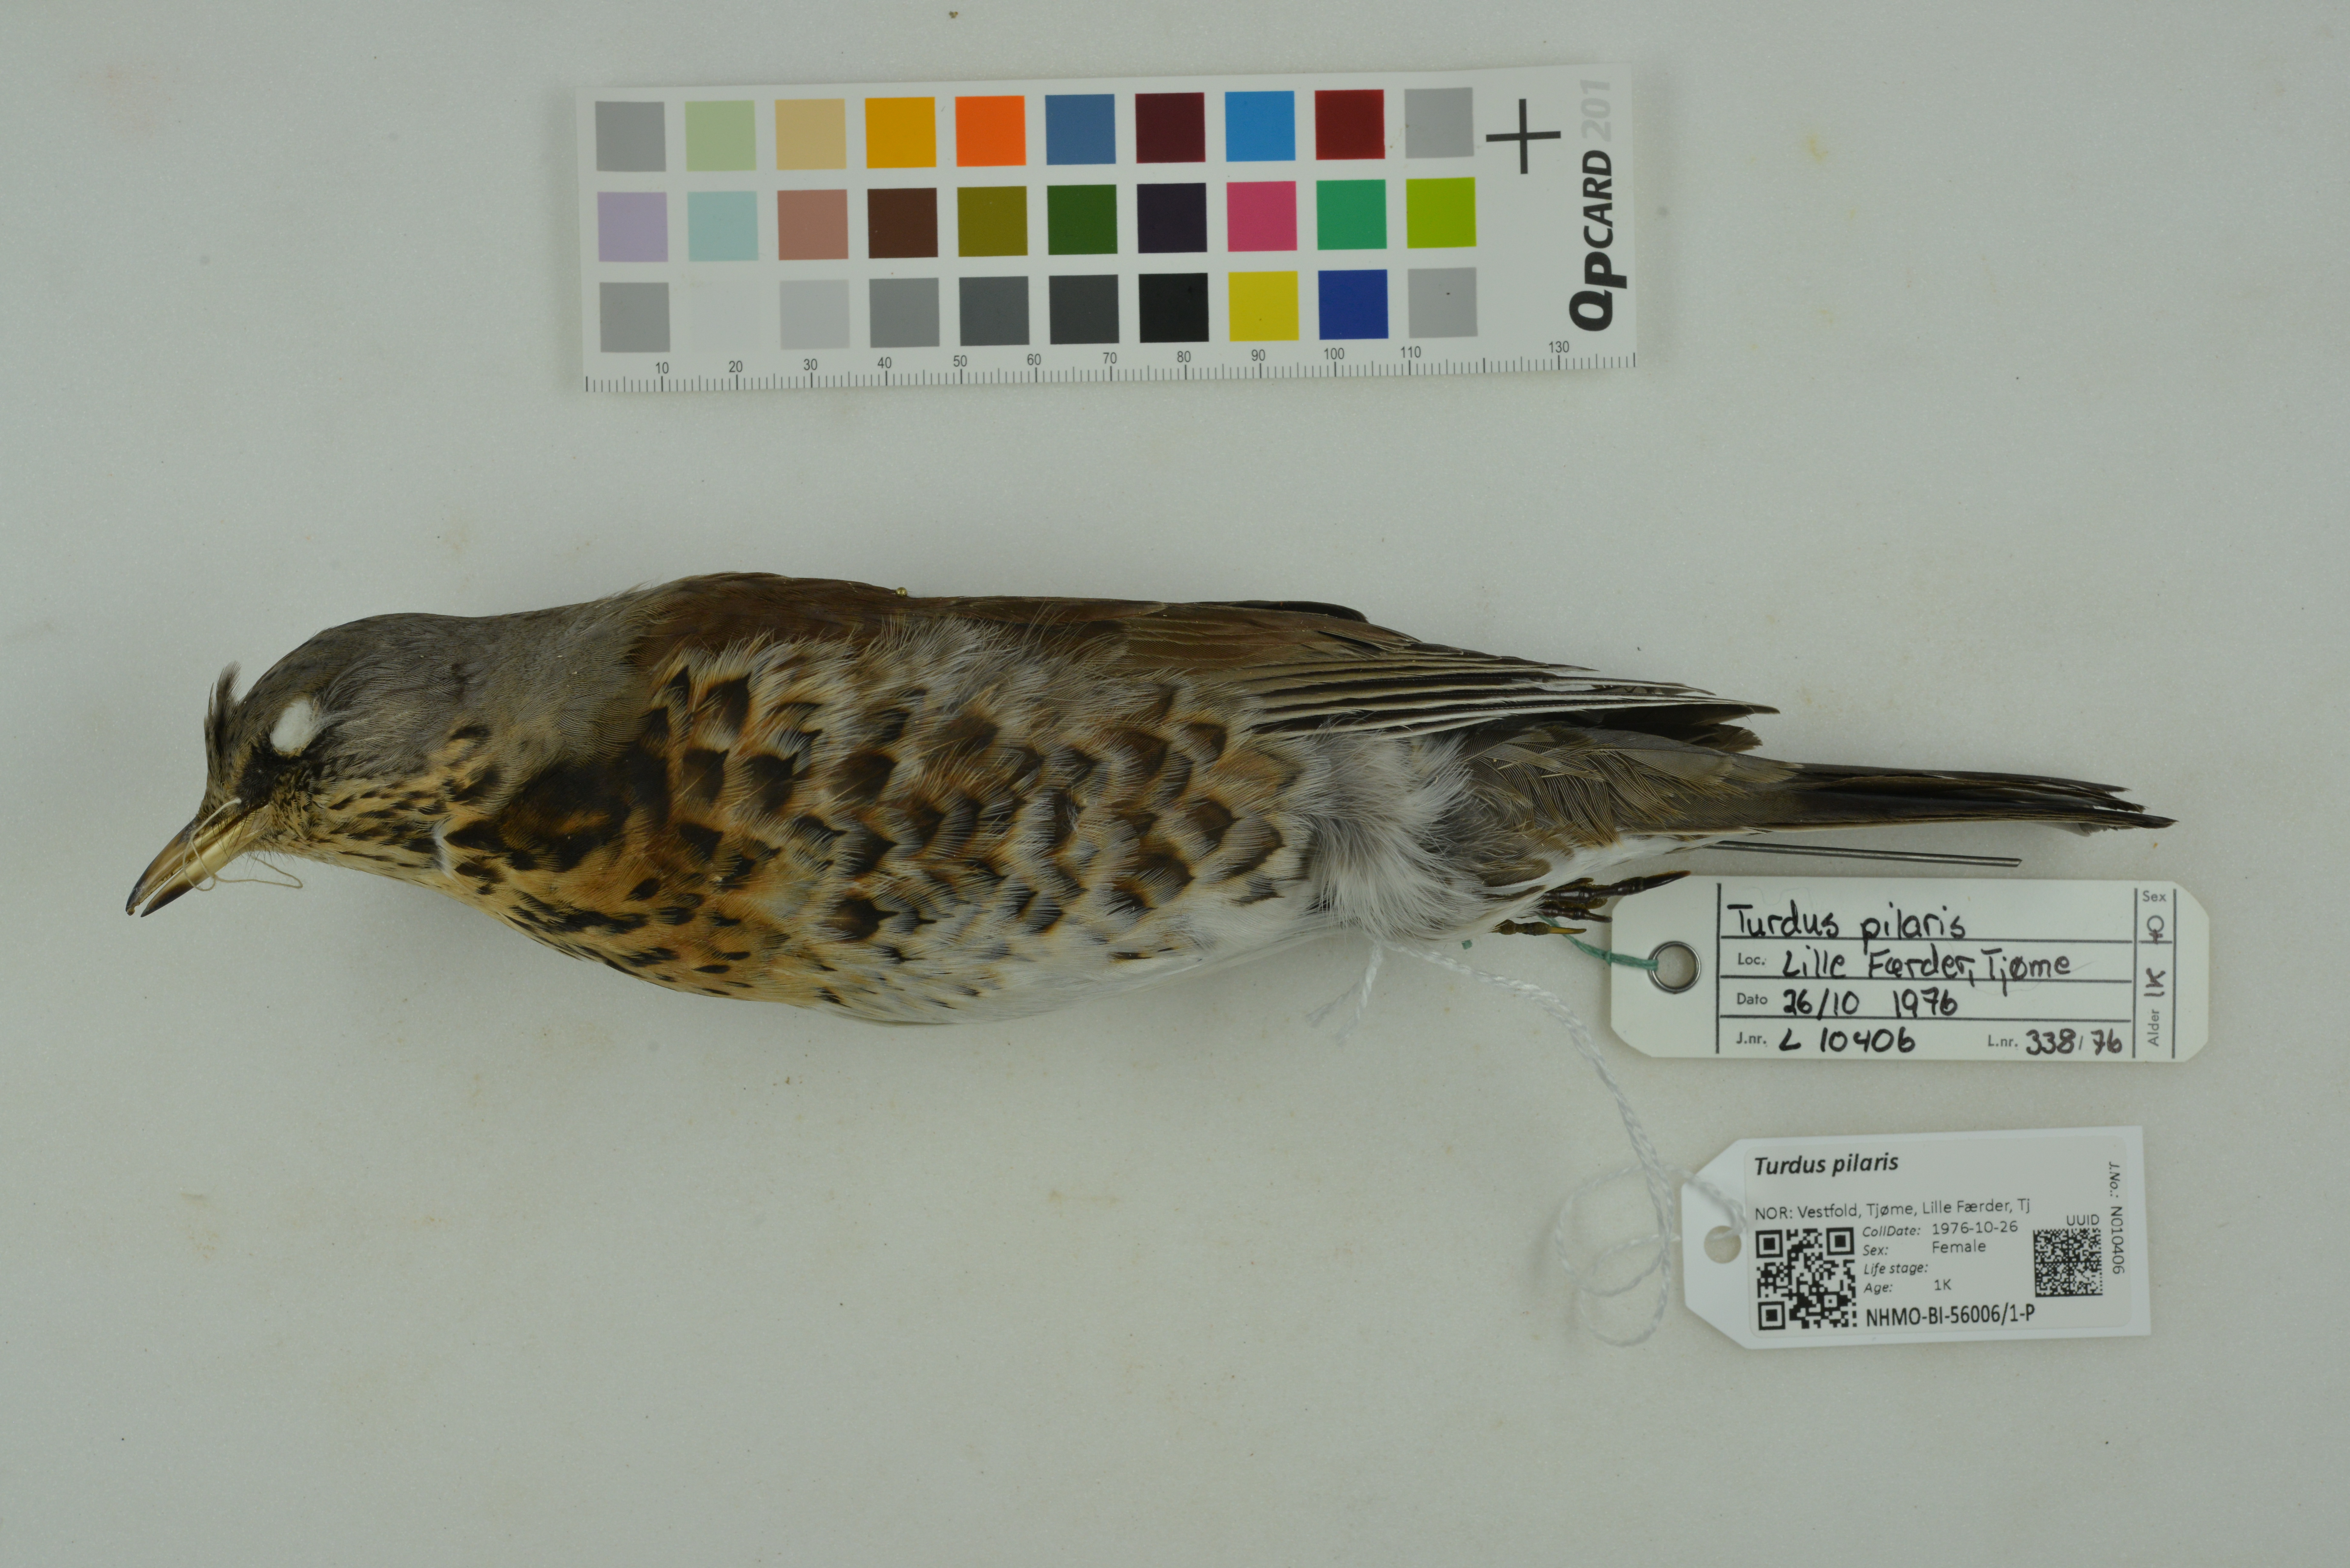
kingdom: Animalia
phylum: Chordata
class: Aves
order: Passeriformes
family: Turdidae
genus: Turdus
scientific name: Turdus pilaris
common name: Fieldfare
